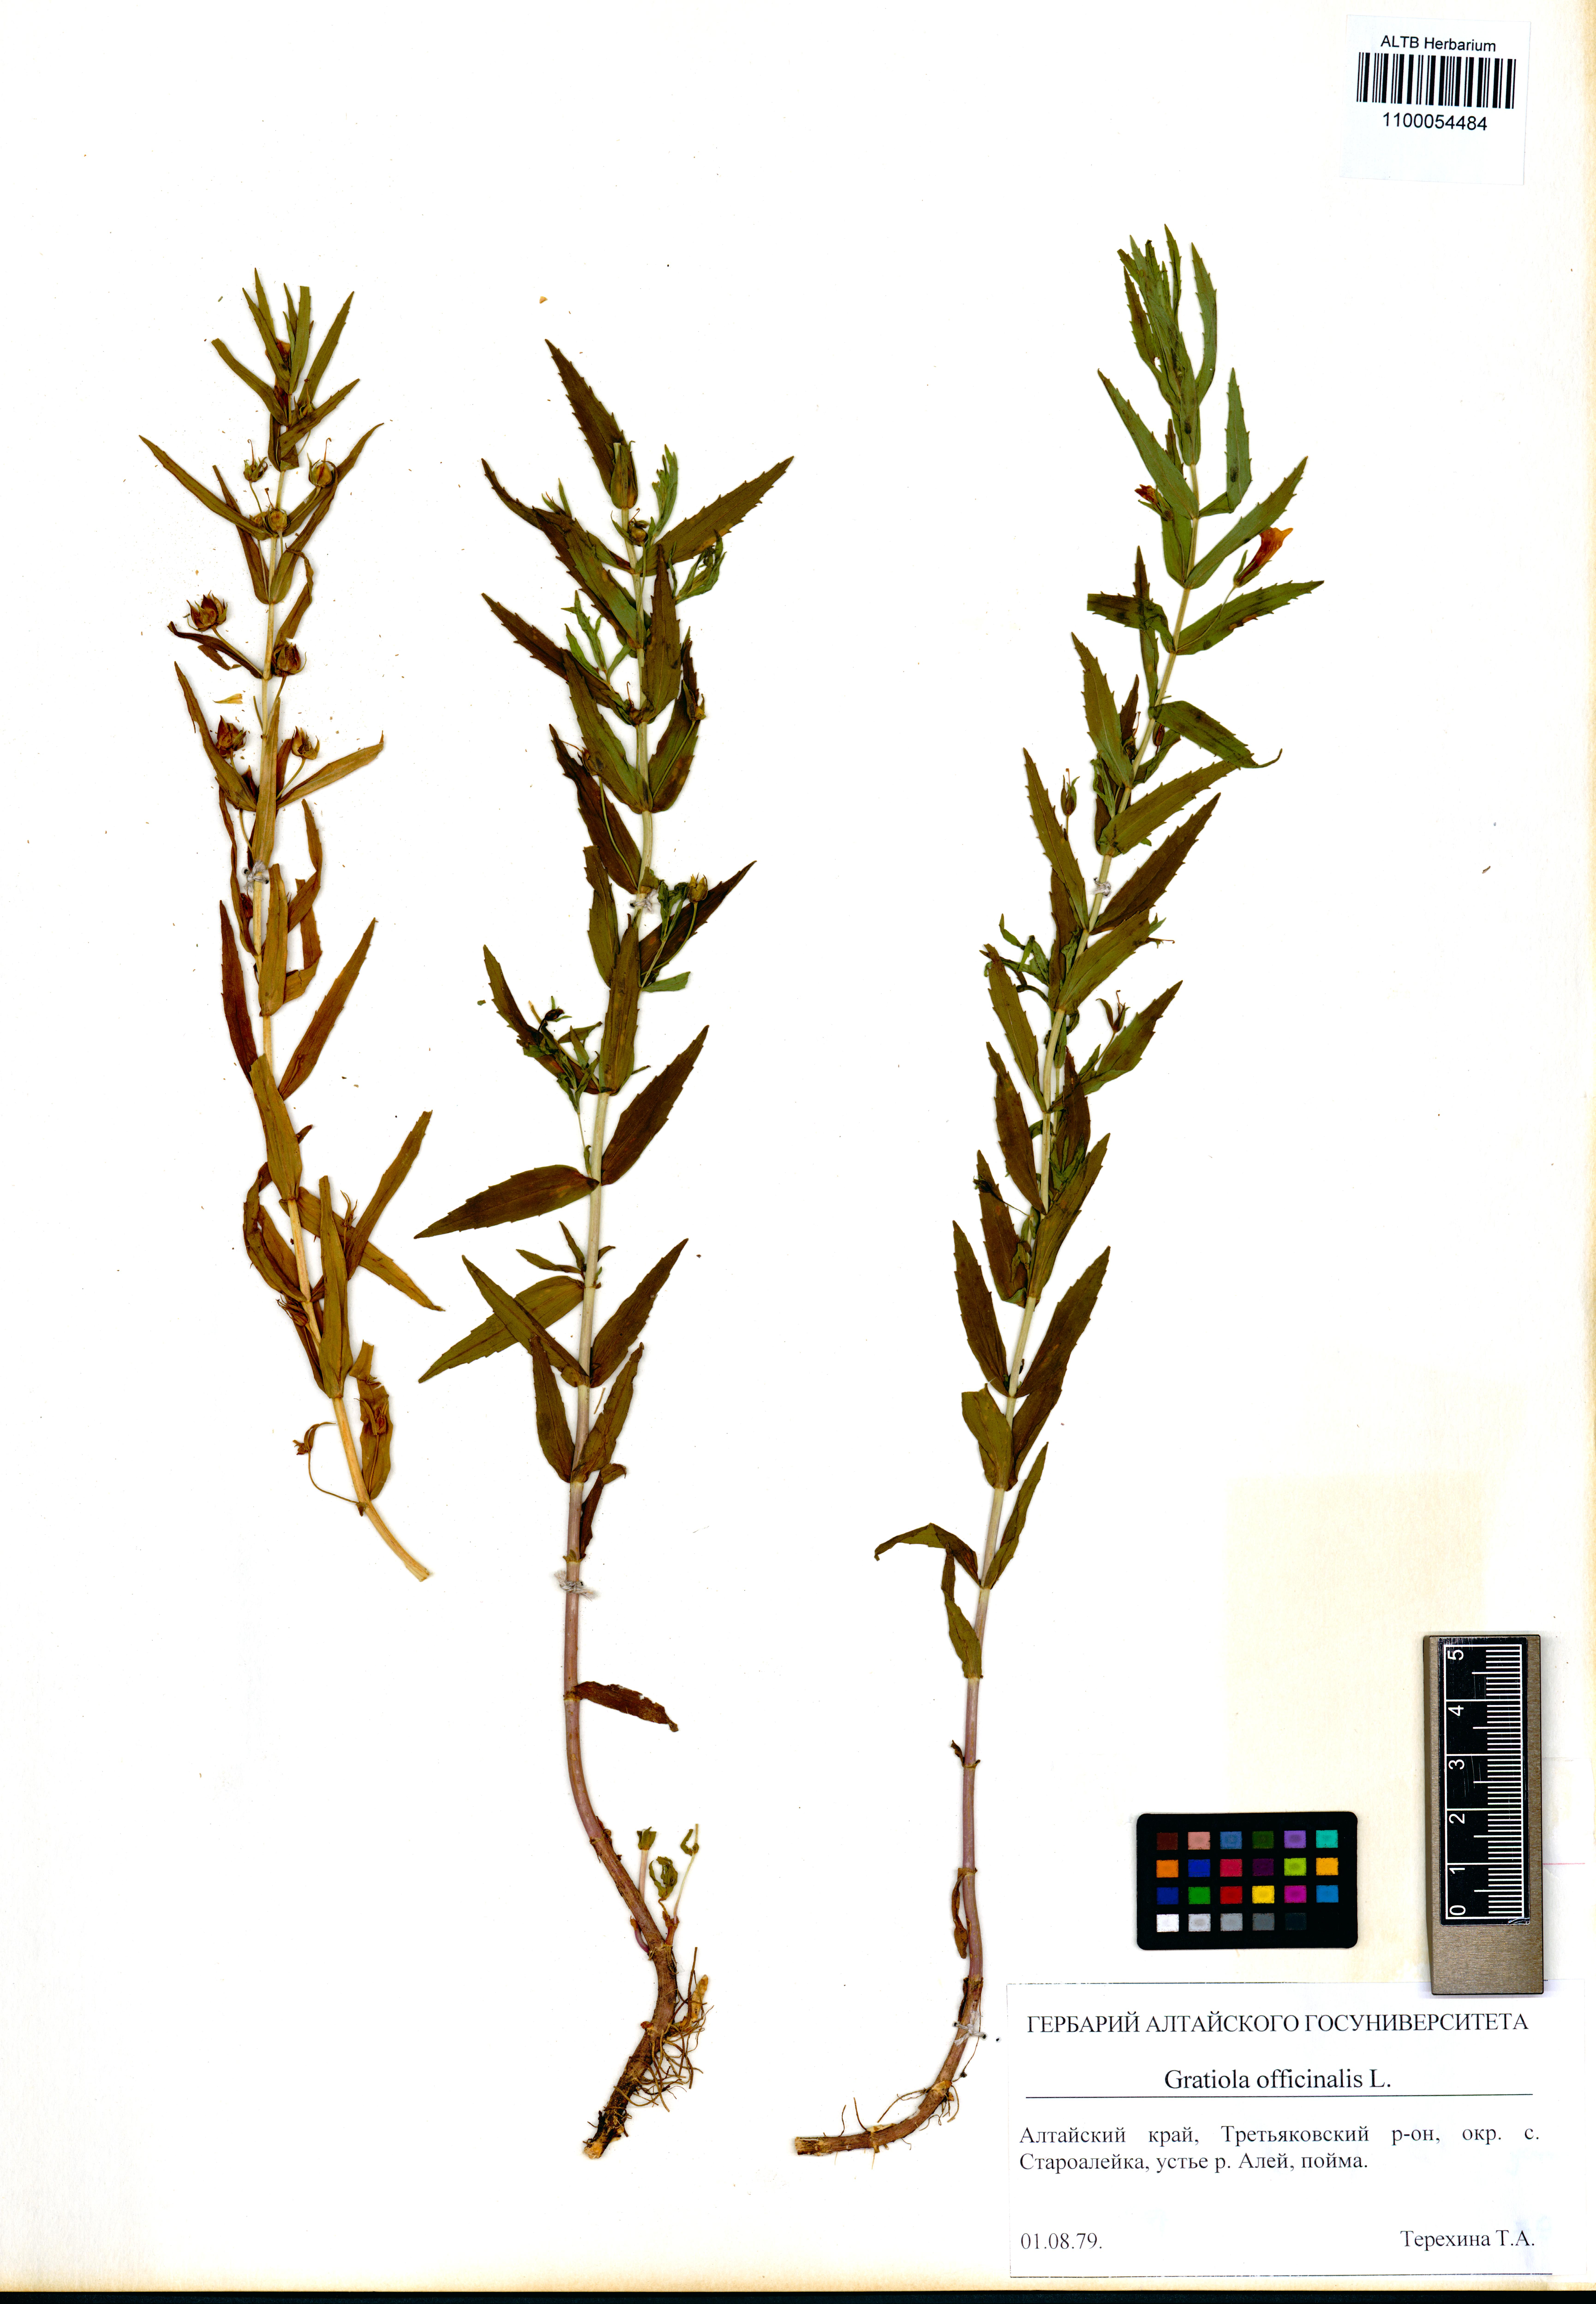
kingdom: Plantae
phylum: Tracheophyta
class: Magnoliopsida
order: Lamiales
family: Plantaginaceae
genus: Gratiola
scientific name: Gratiola officinalis
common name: Gratiola
